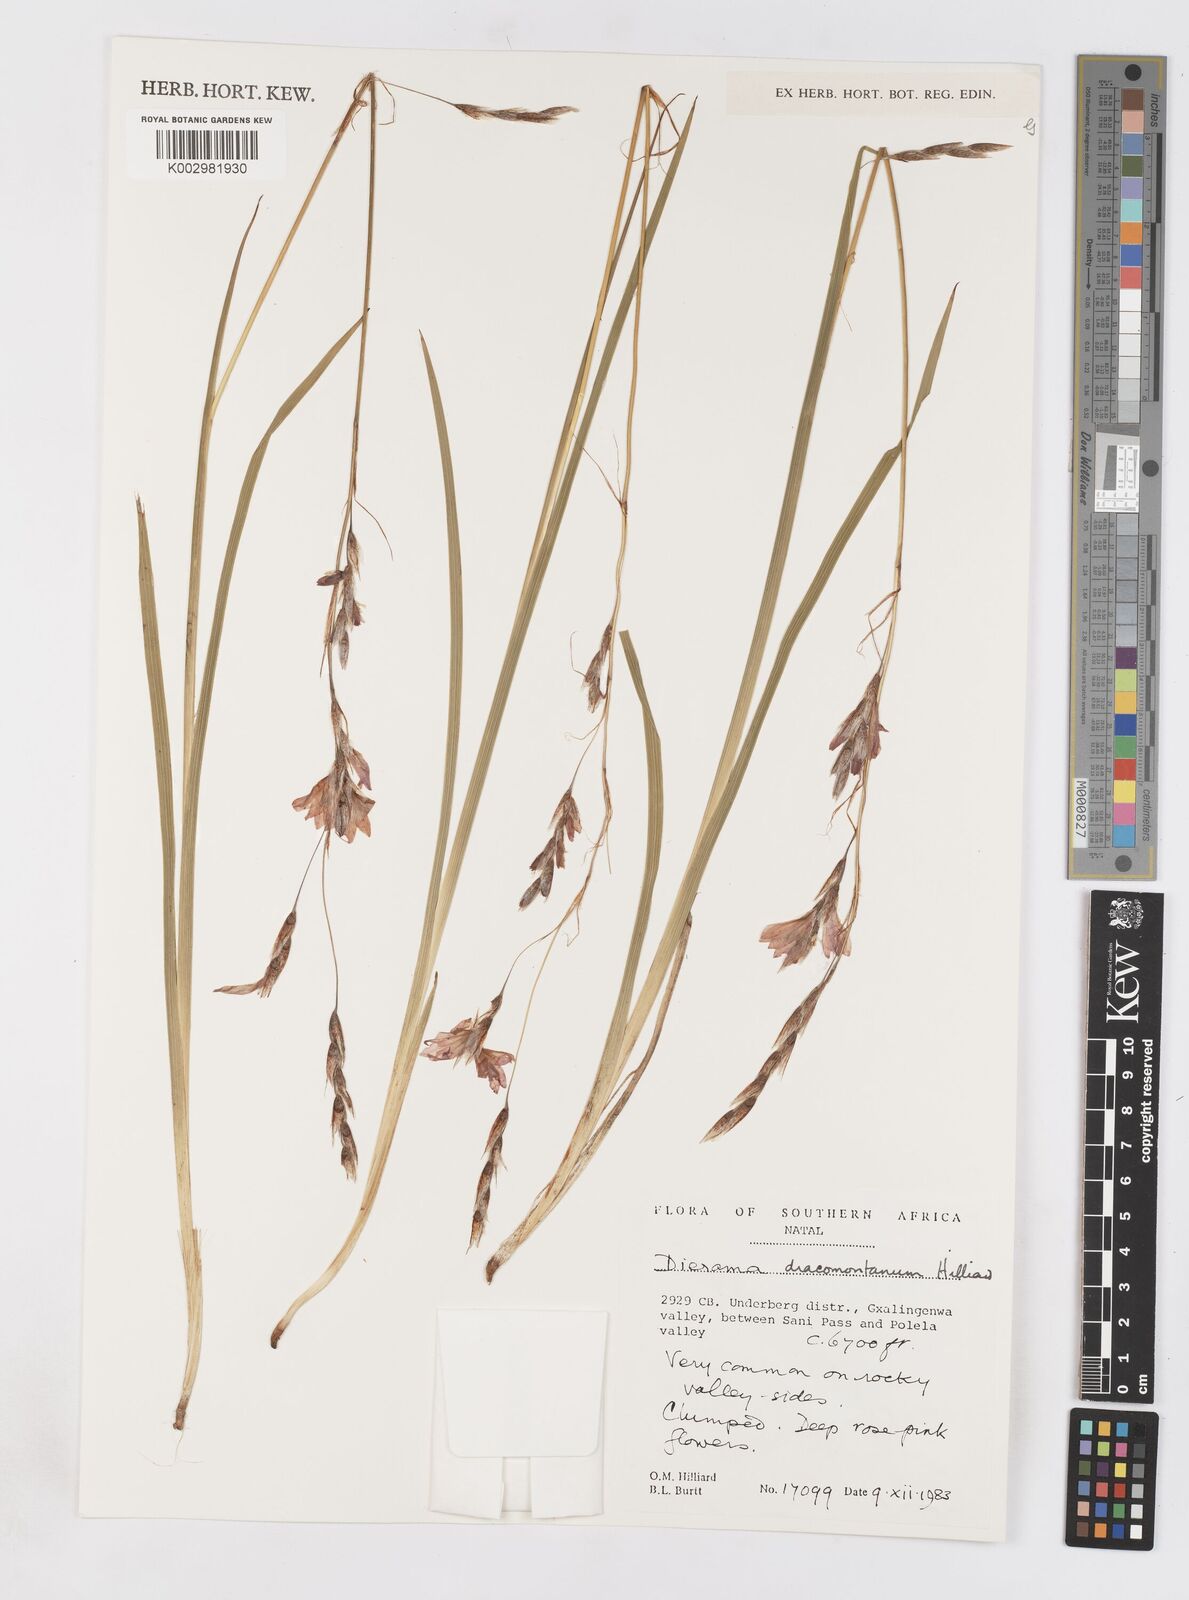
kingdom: Plantae
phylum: Tracheophyta
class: Liliopsida
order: Asparagales
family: Iridaceae
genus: Dierama
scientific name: Dierama dracomontanum
